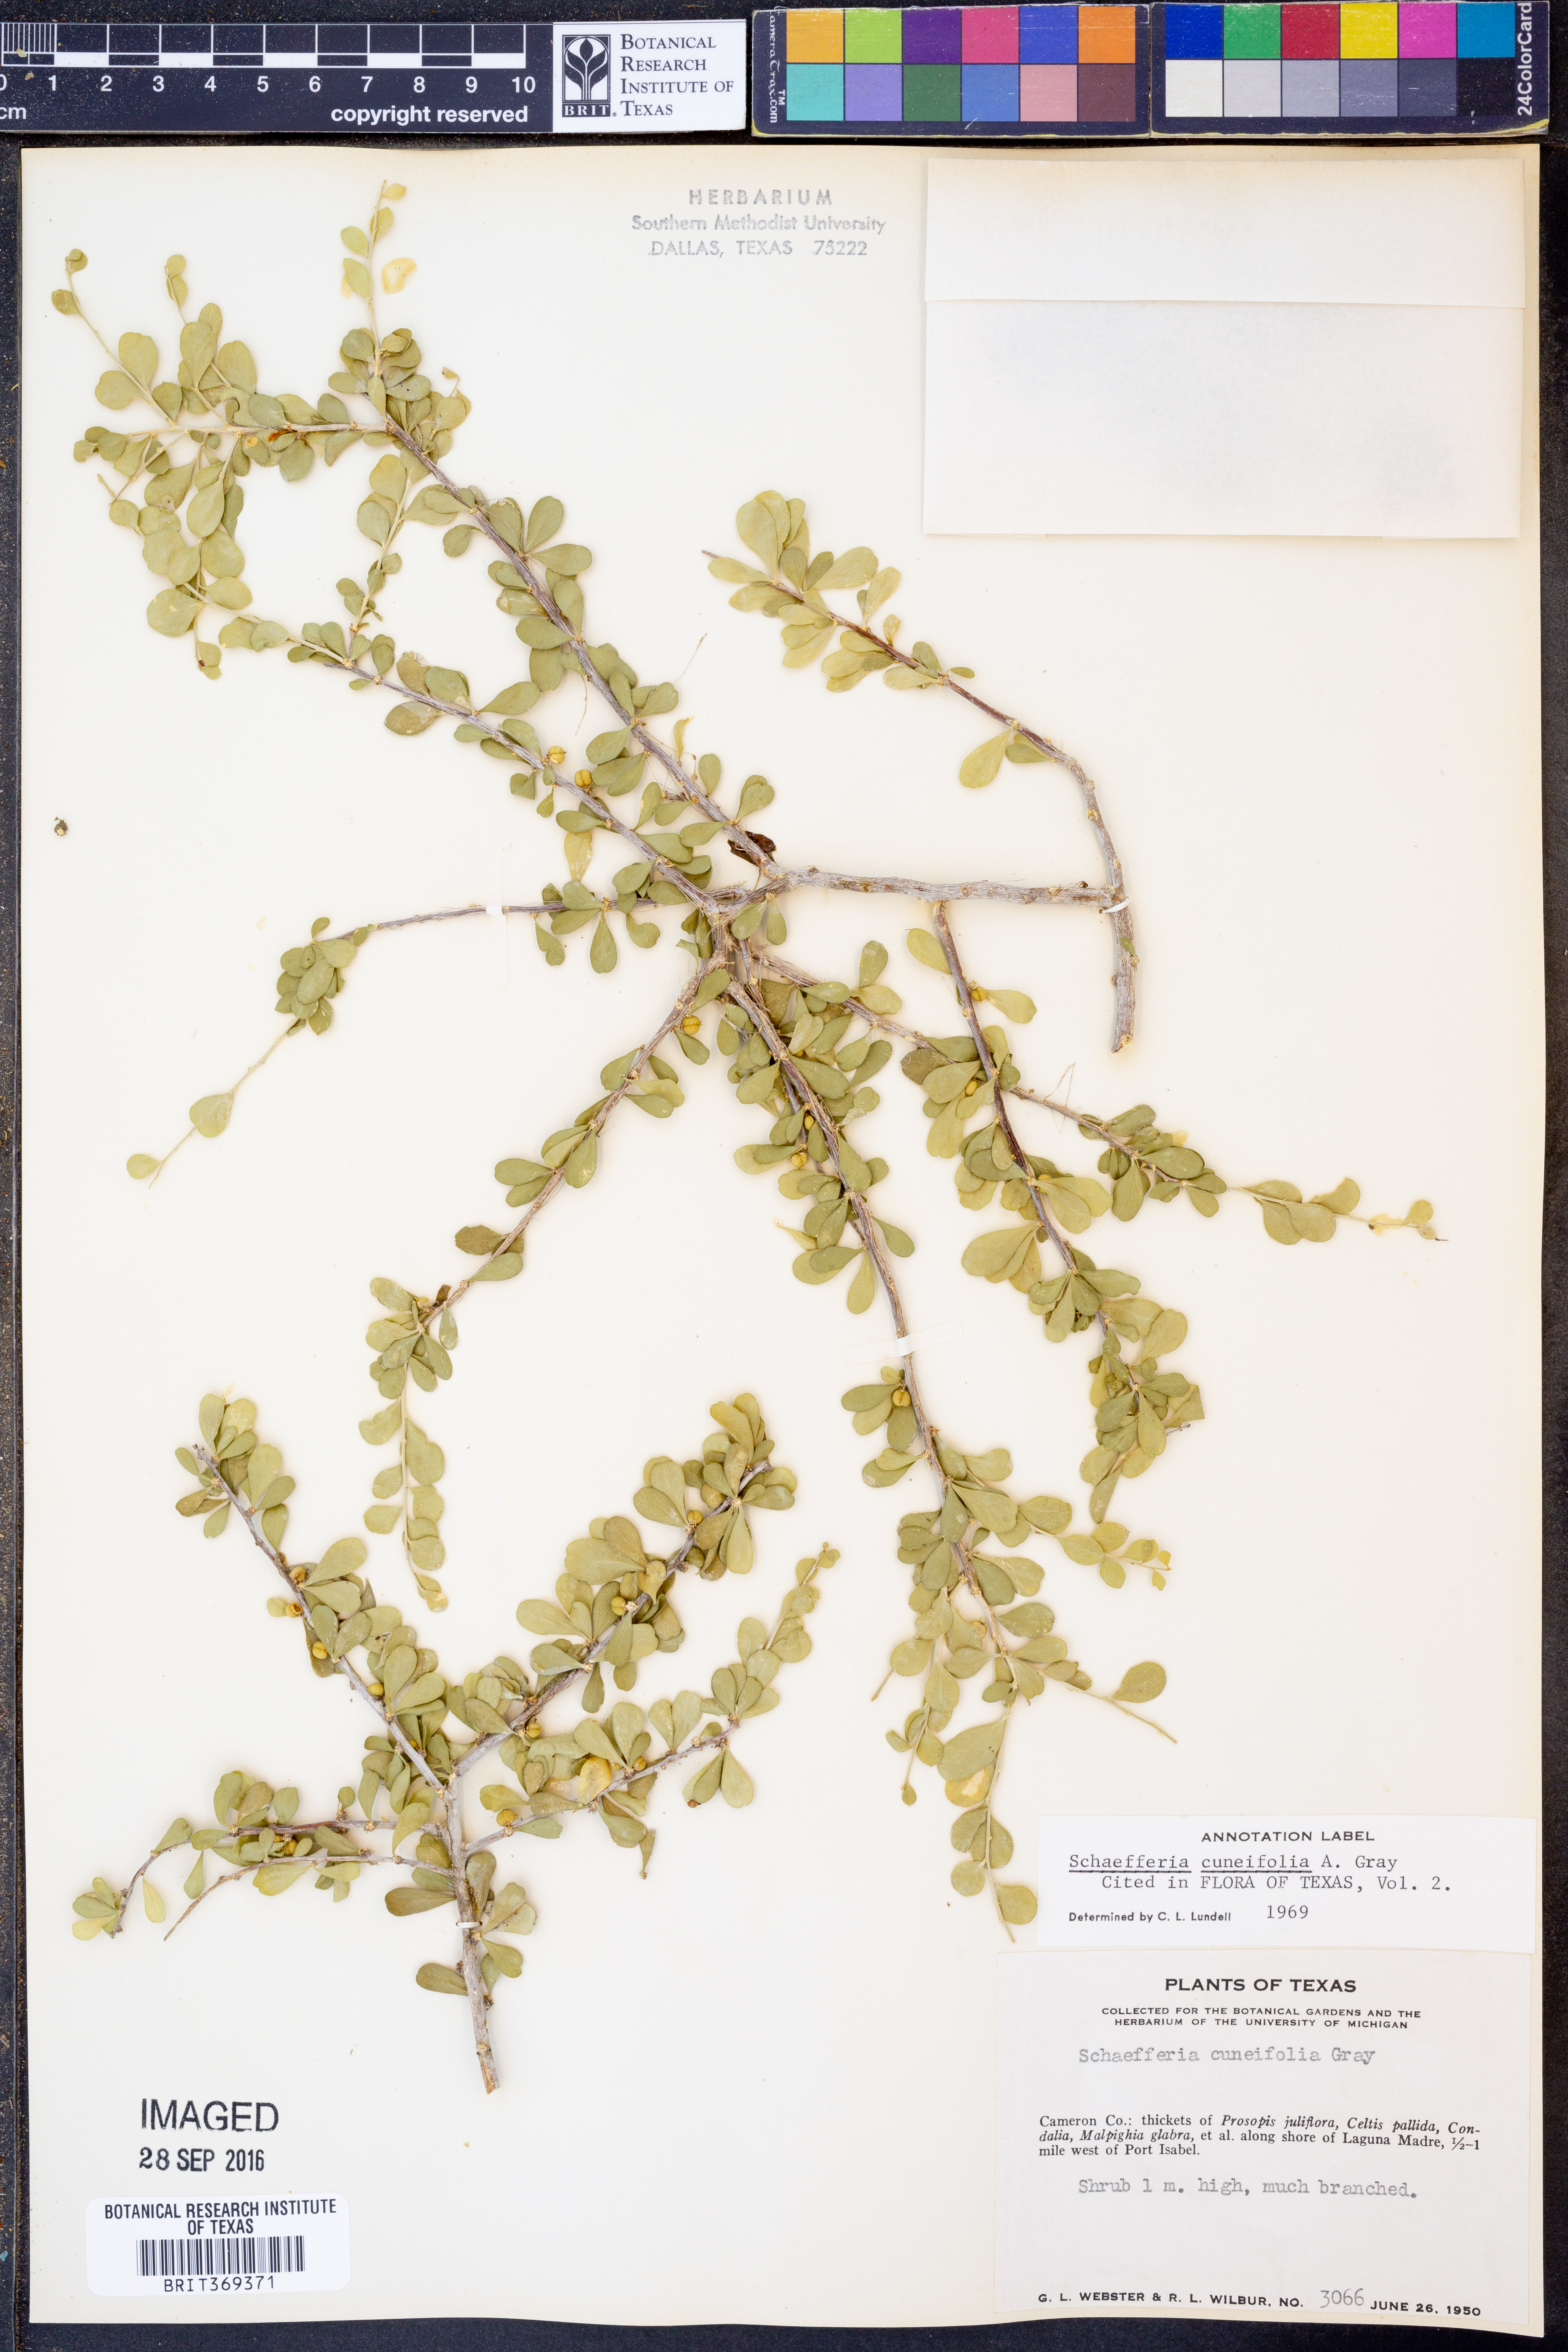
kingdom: Plantae
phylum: Tracheophyta
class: Magnoliopsida
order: Celastrales
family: Celastraceae
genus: Schaefferia
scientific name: Schaefferia cuneifolia
